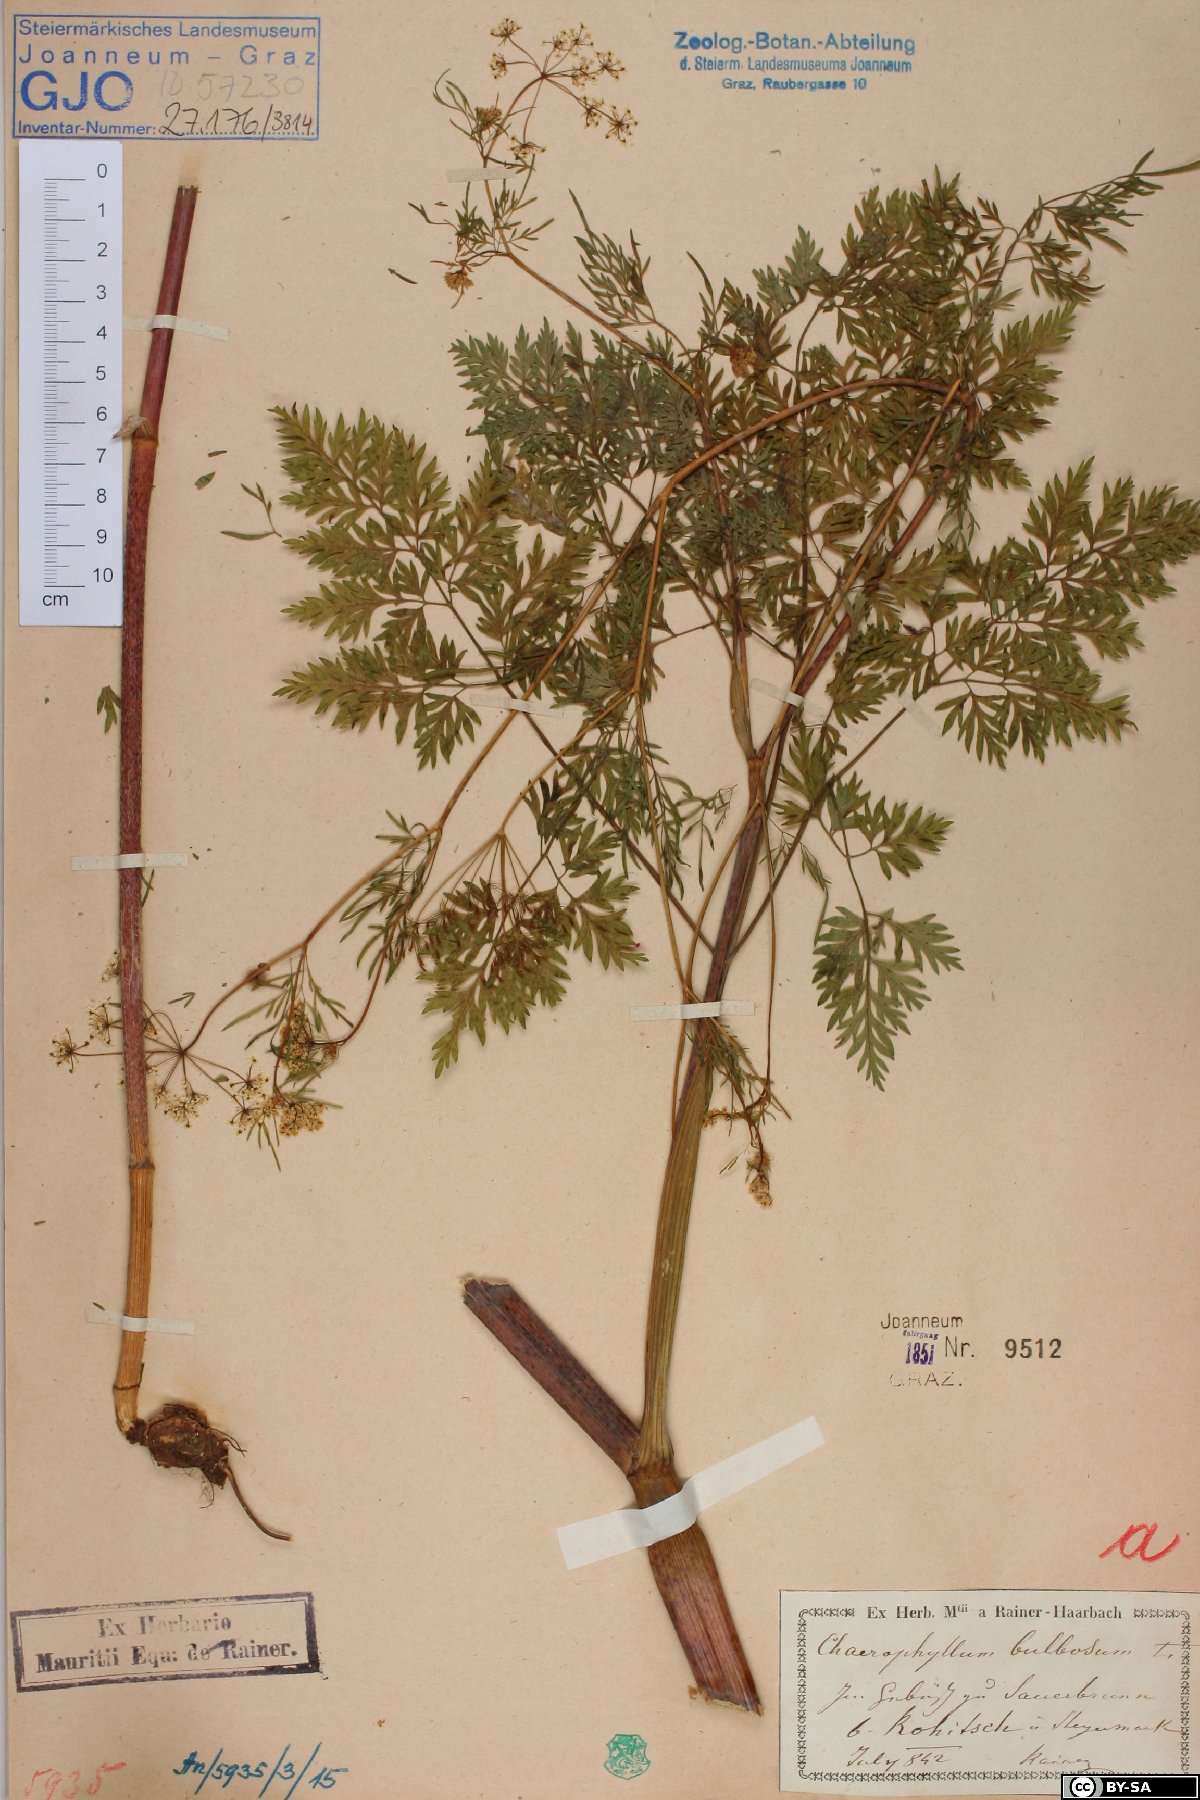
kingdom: Plantae
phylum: Tracheophyta
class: Magnoliopsida
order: Apiales
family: Apiaceae
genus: Chaerophyllum
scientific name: Chaerophyllum bulbosum
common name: Bulbous chervil
